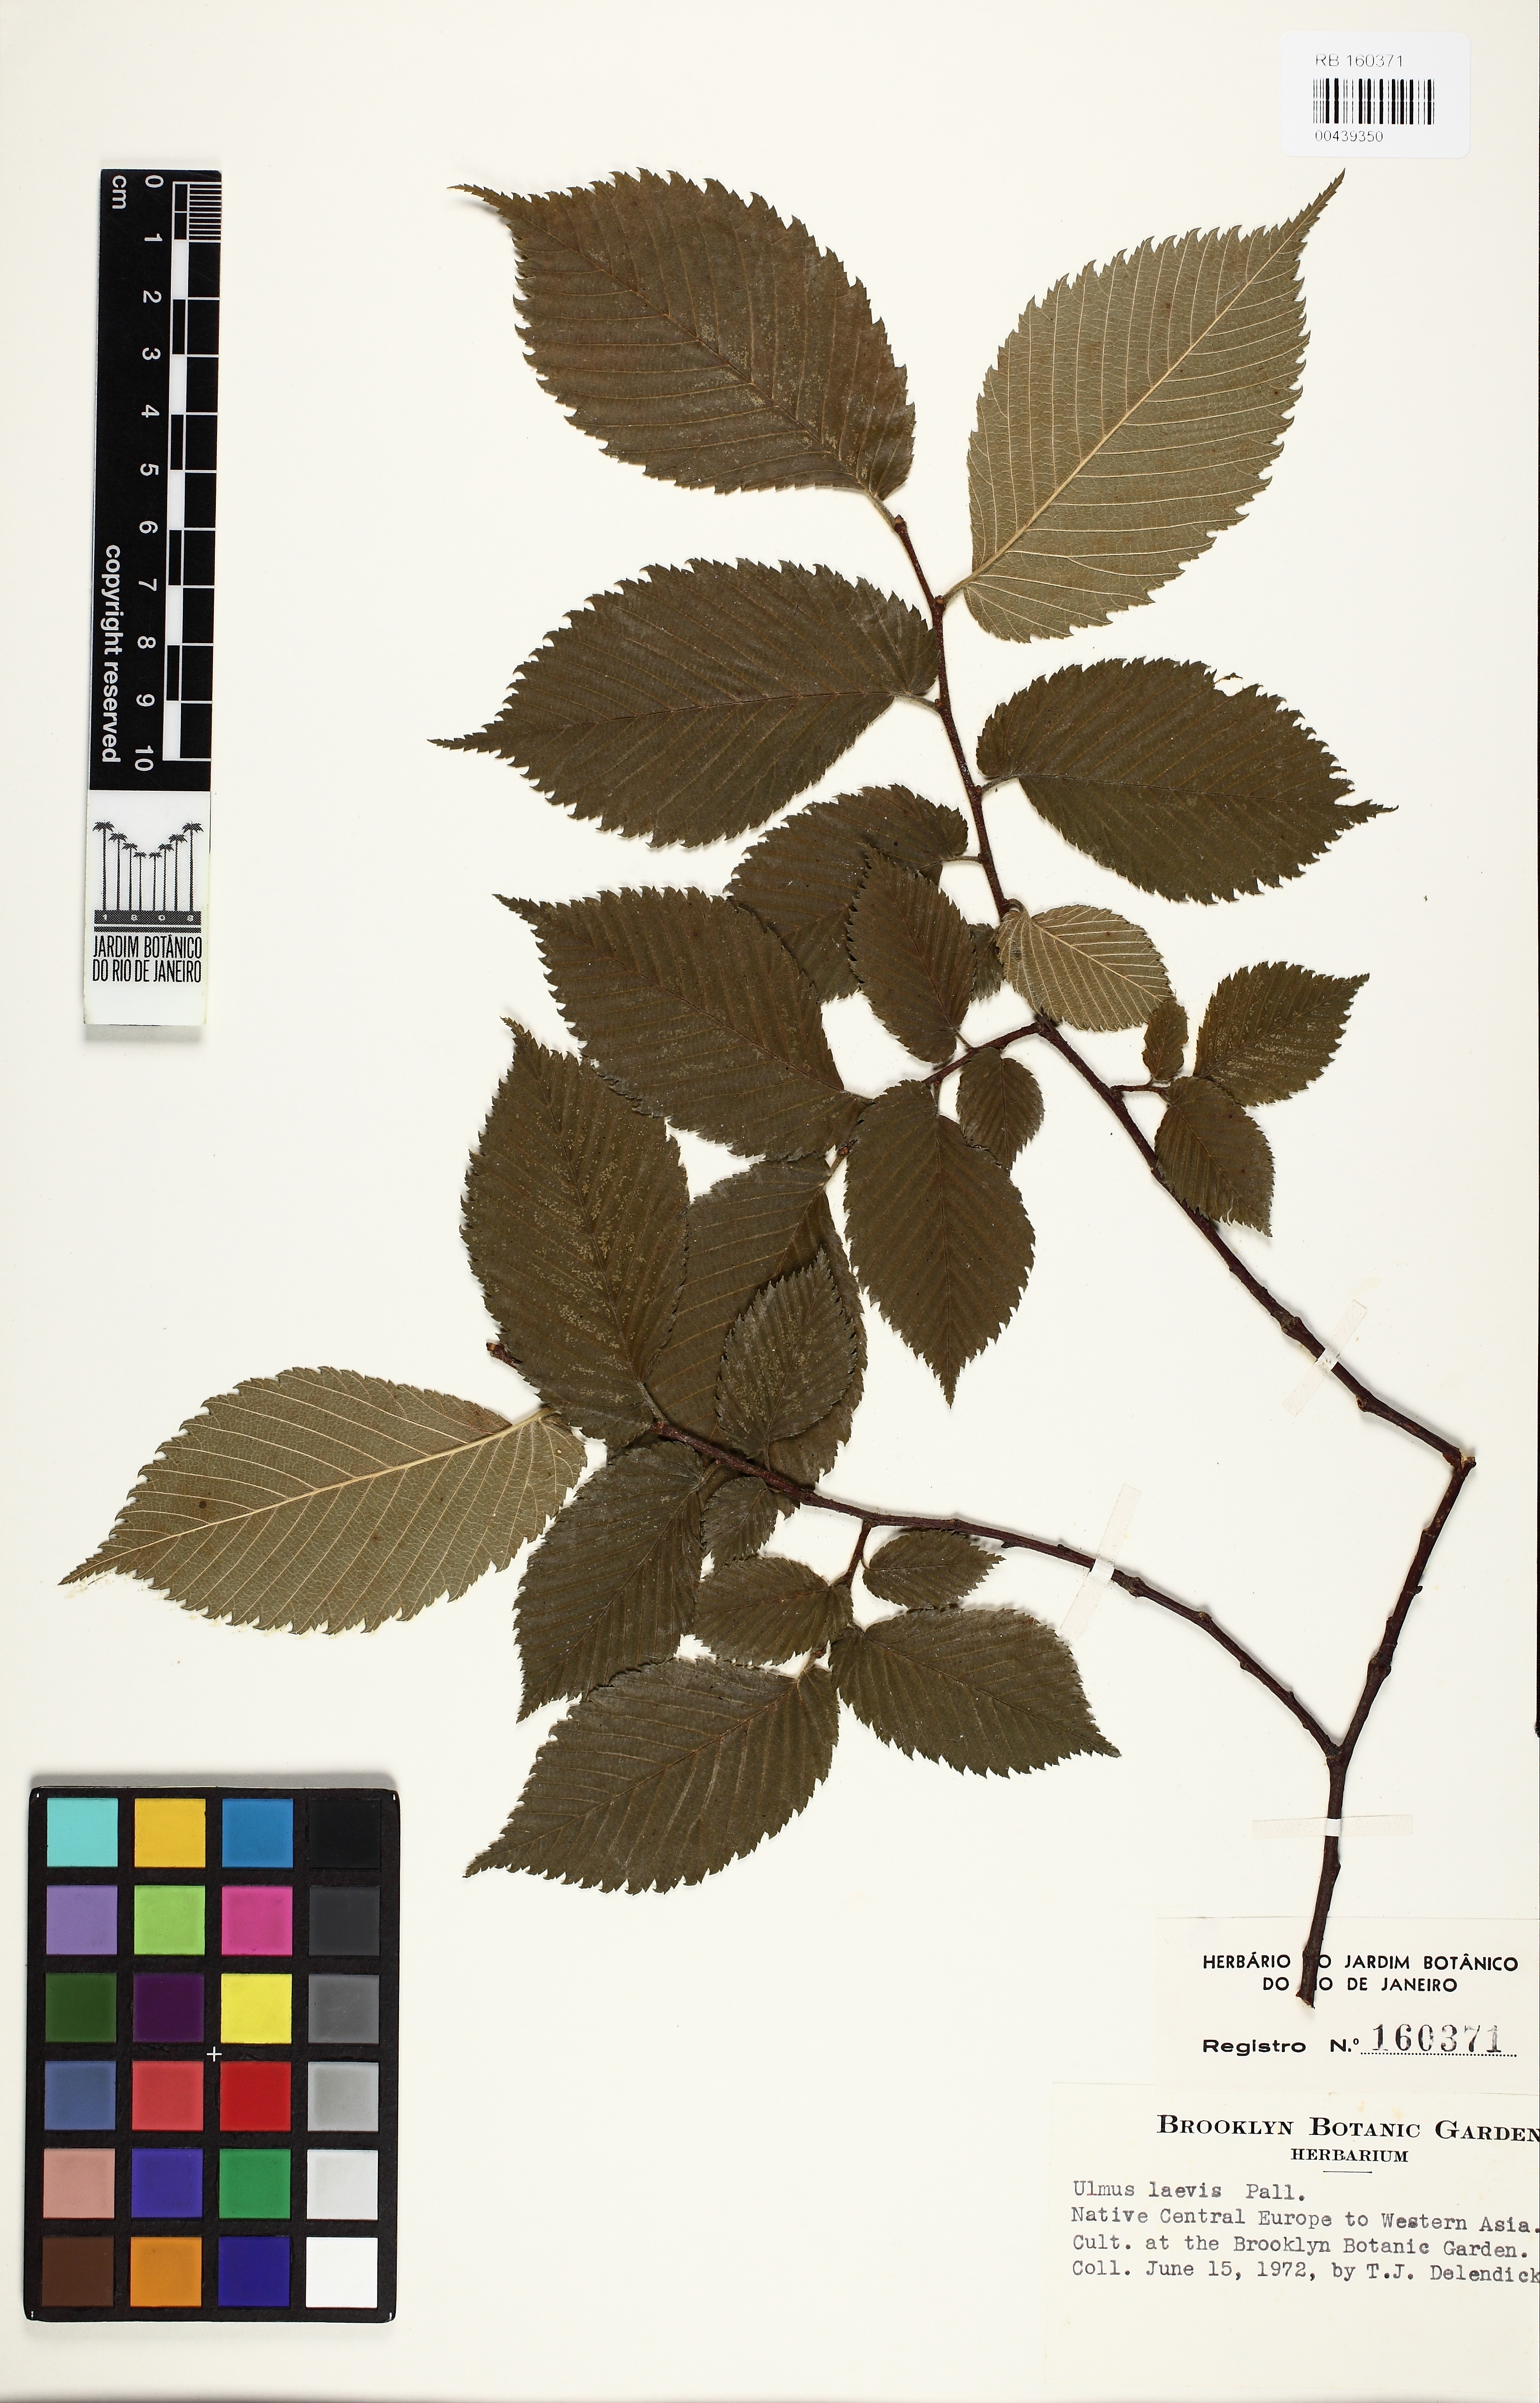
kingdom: Plantae
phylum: Tracheophyta
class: Magnoliopsida
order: Rosales
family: Ulmaceae
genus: Ulmus
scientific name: Ulmus laevis
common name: European white-elm
